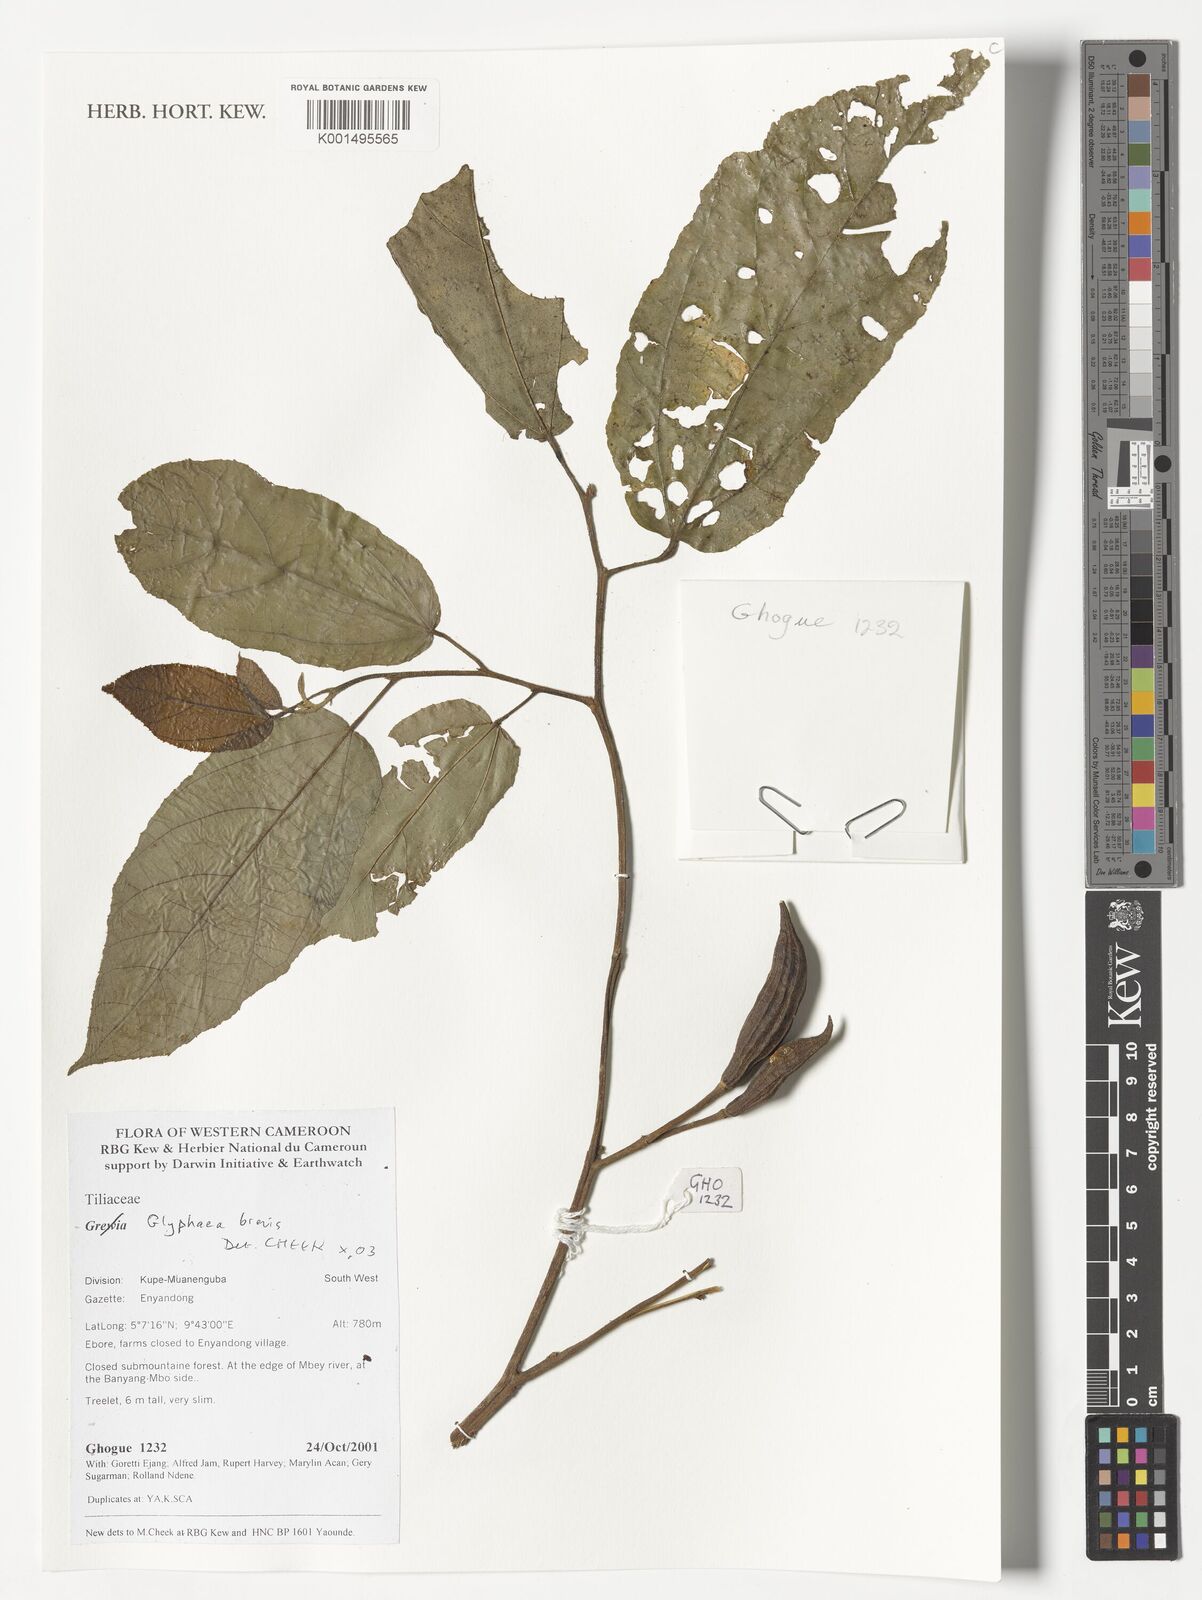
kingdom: Plantae
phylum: Tracheophyta
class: Magnoliopsida
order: Malvales
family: Malvaceae
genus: Glyphaea
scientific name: Glyphaea brevis
